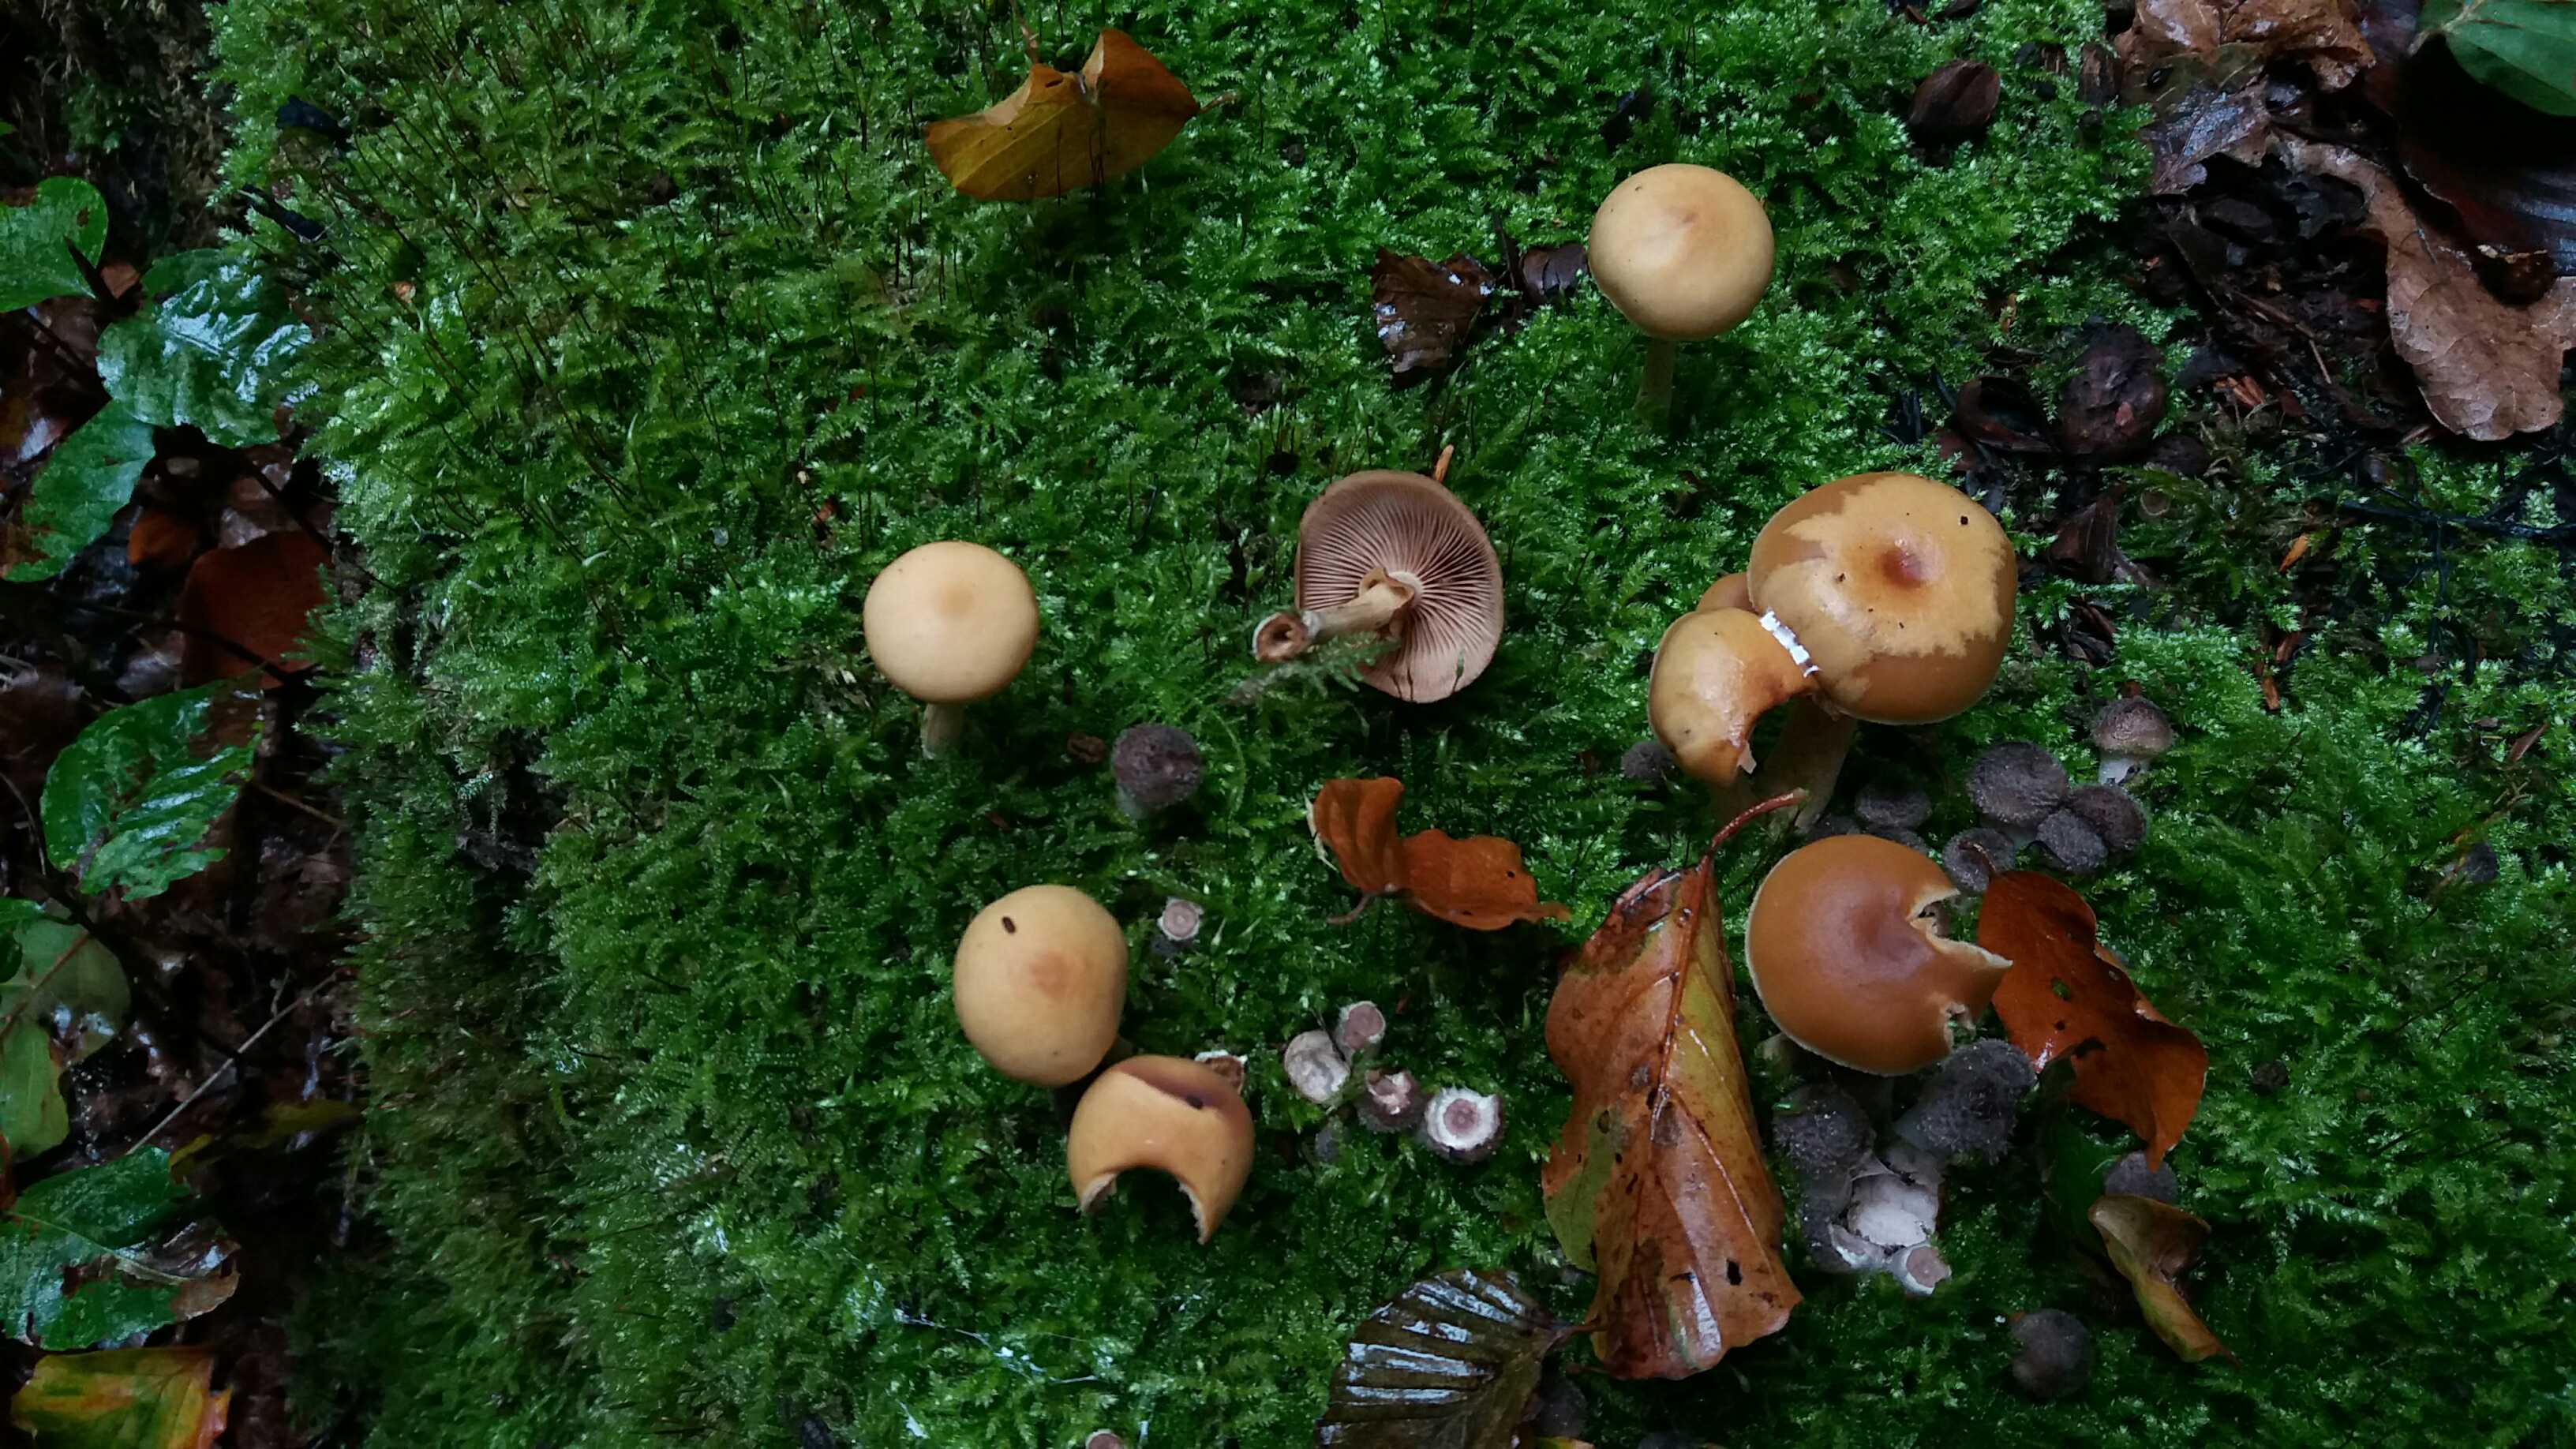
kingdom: Fungi
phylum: Basidiomycota
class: Agaricomycetes
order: Agaricales
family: Hymenogastraceae
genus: Galerina
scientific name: Galerina marginata
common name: randbæltet hjelmhat
